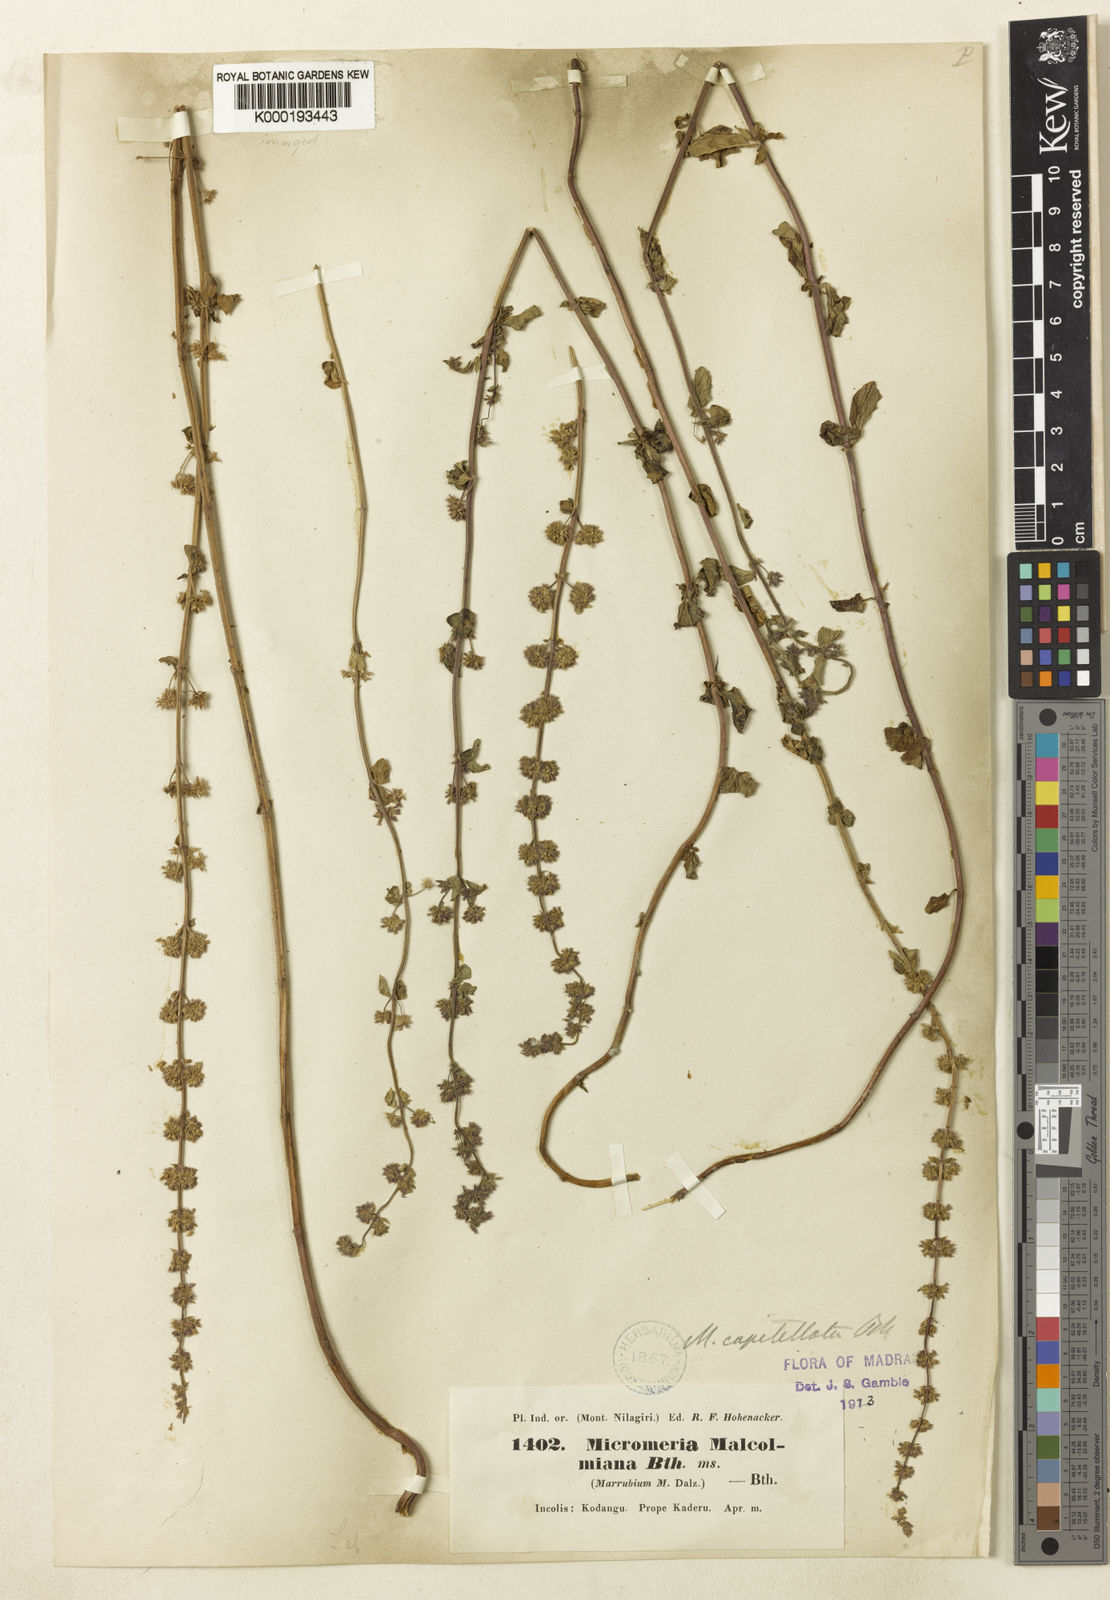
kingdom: Plantae
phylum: Tracheophyta
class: Magnoliopsida
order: Lamiales
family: Lamiaceae
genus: Clinopodium
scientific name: Clinopodium capitellatum
